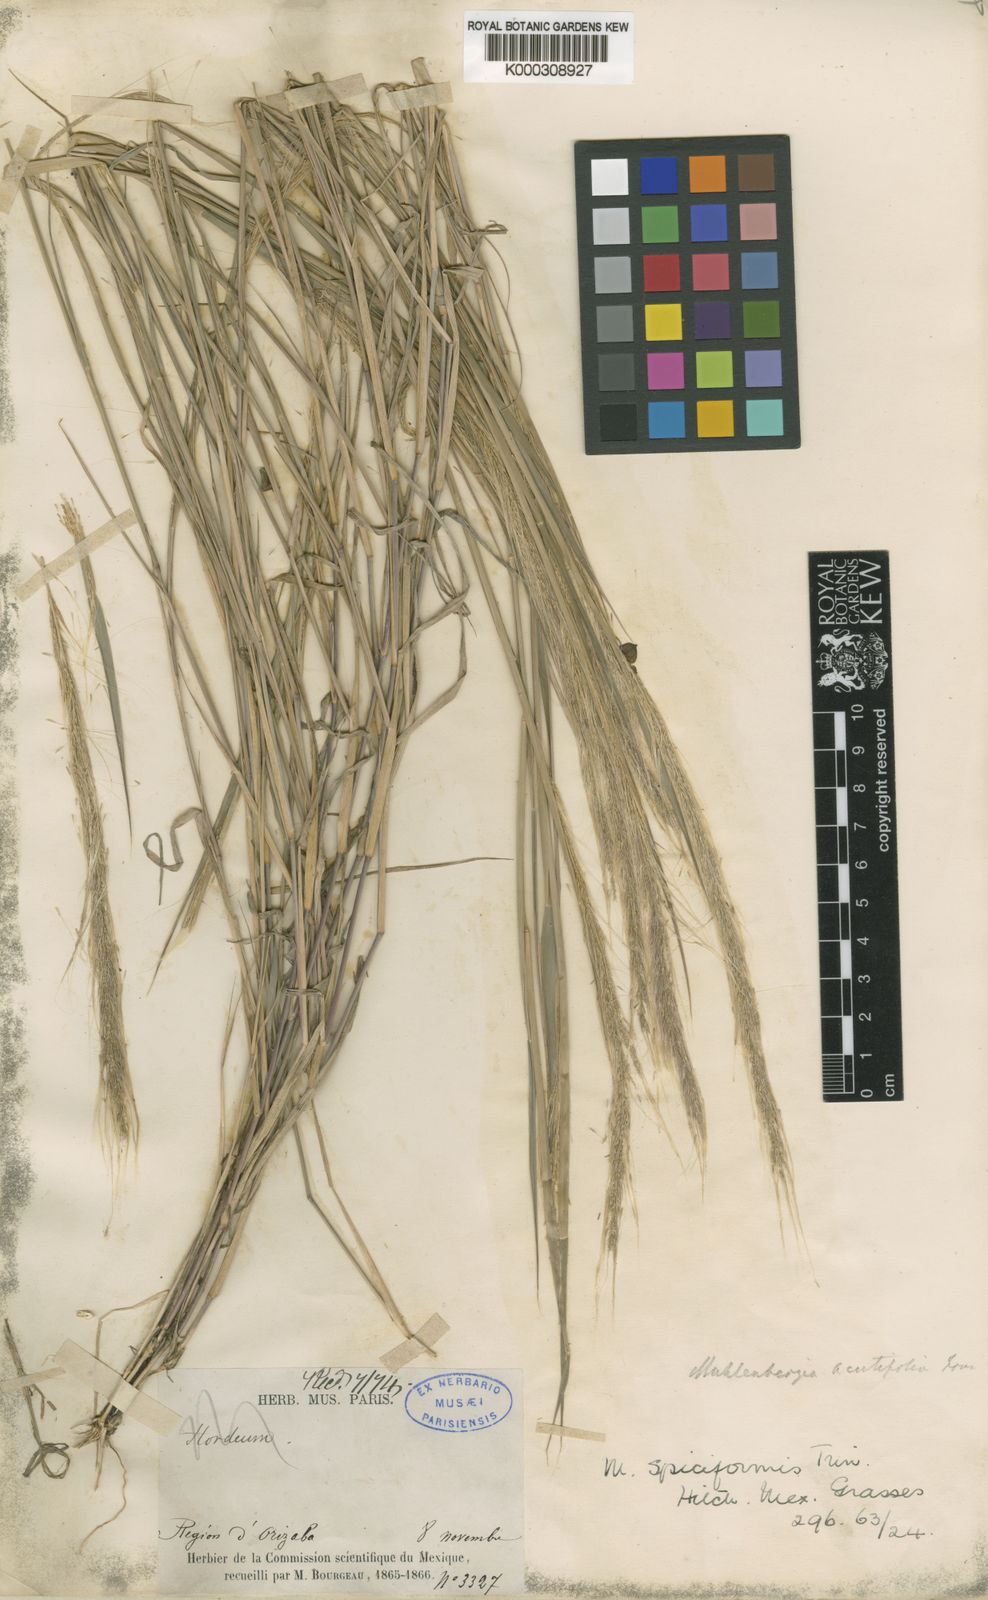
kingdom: Plantae
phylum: Tracheophyta
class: Liliopsida
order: Poales
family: Poaceae
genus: Muhlenbergia
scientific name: Muhlenbergia spiciformis
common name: Longawn muhly
